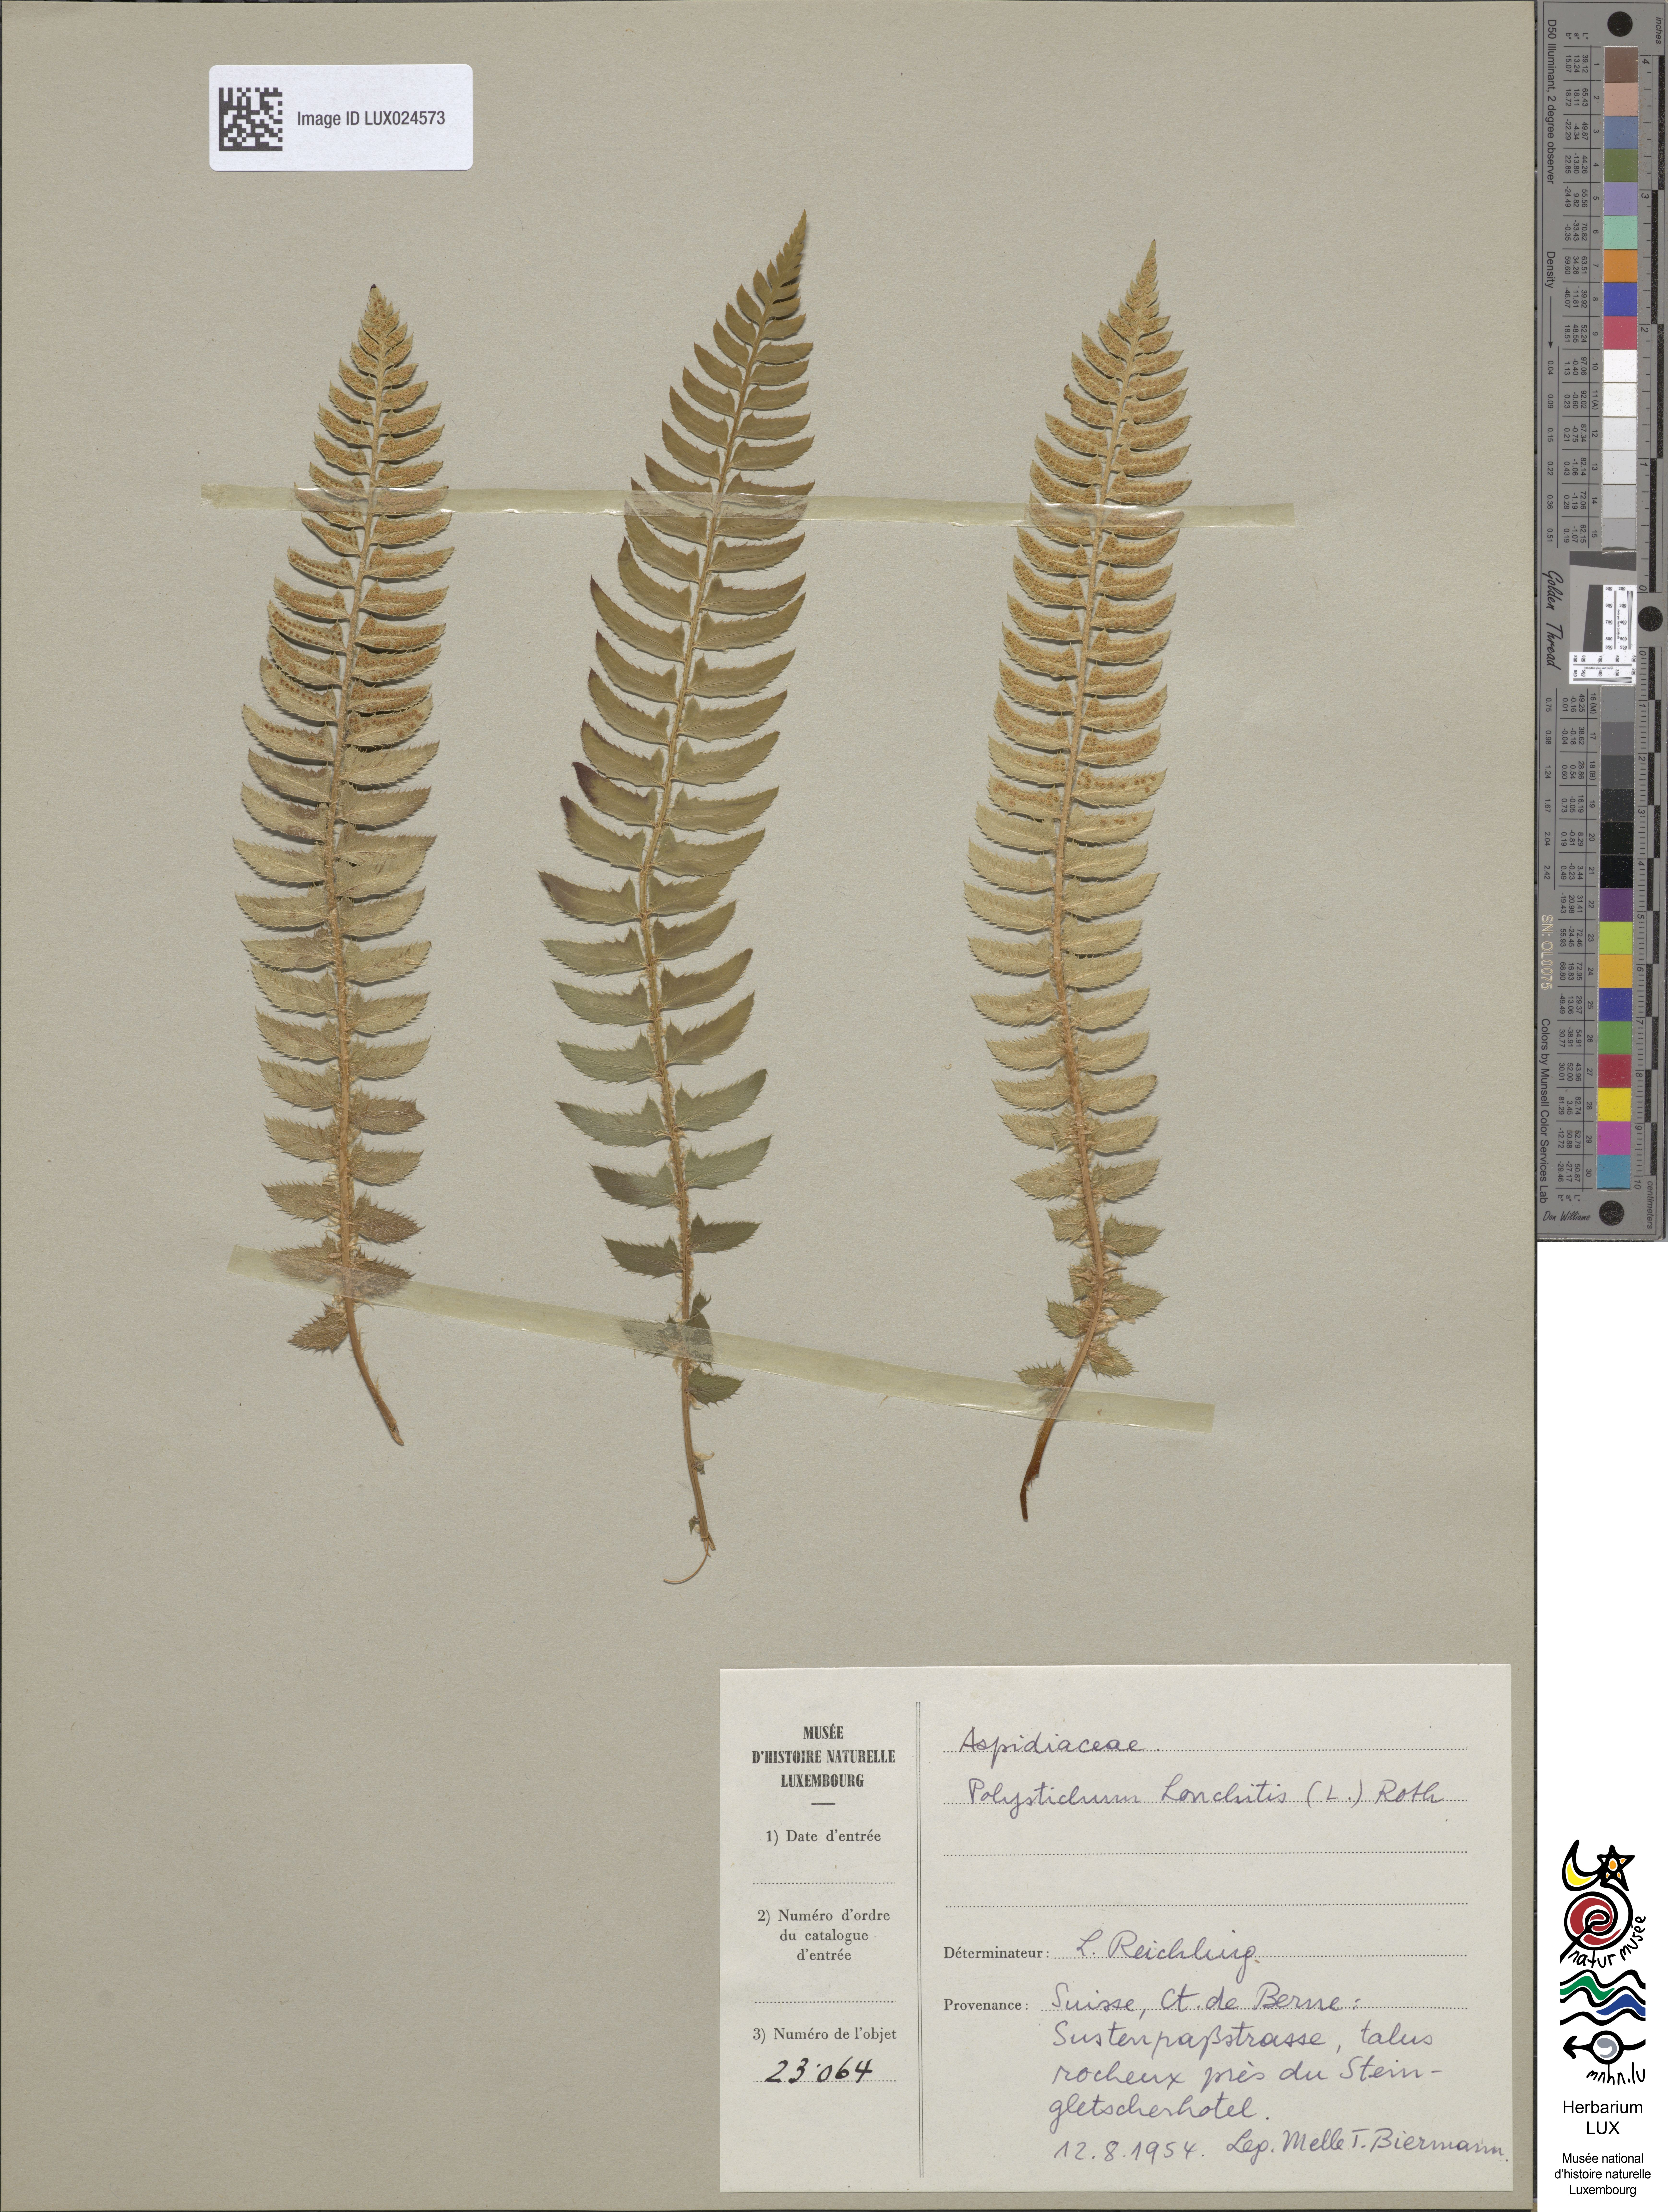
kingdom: Plantae
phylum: Tracheophyta
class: Polypodiopsida
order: Polypodiales
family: Dryopteridaceae
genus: Polystichum
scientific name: Polystichum lonchitis
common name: Holly fern
